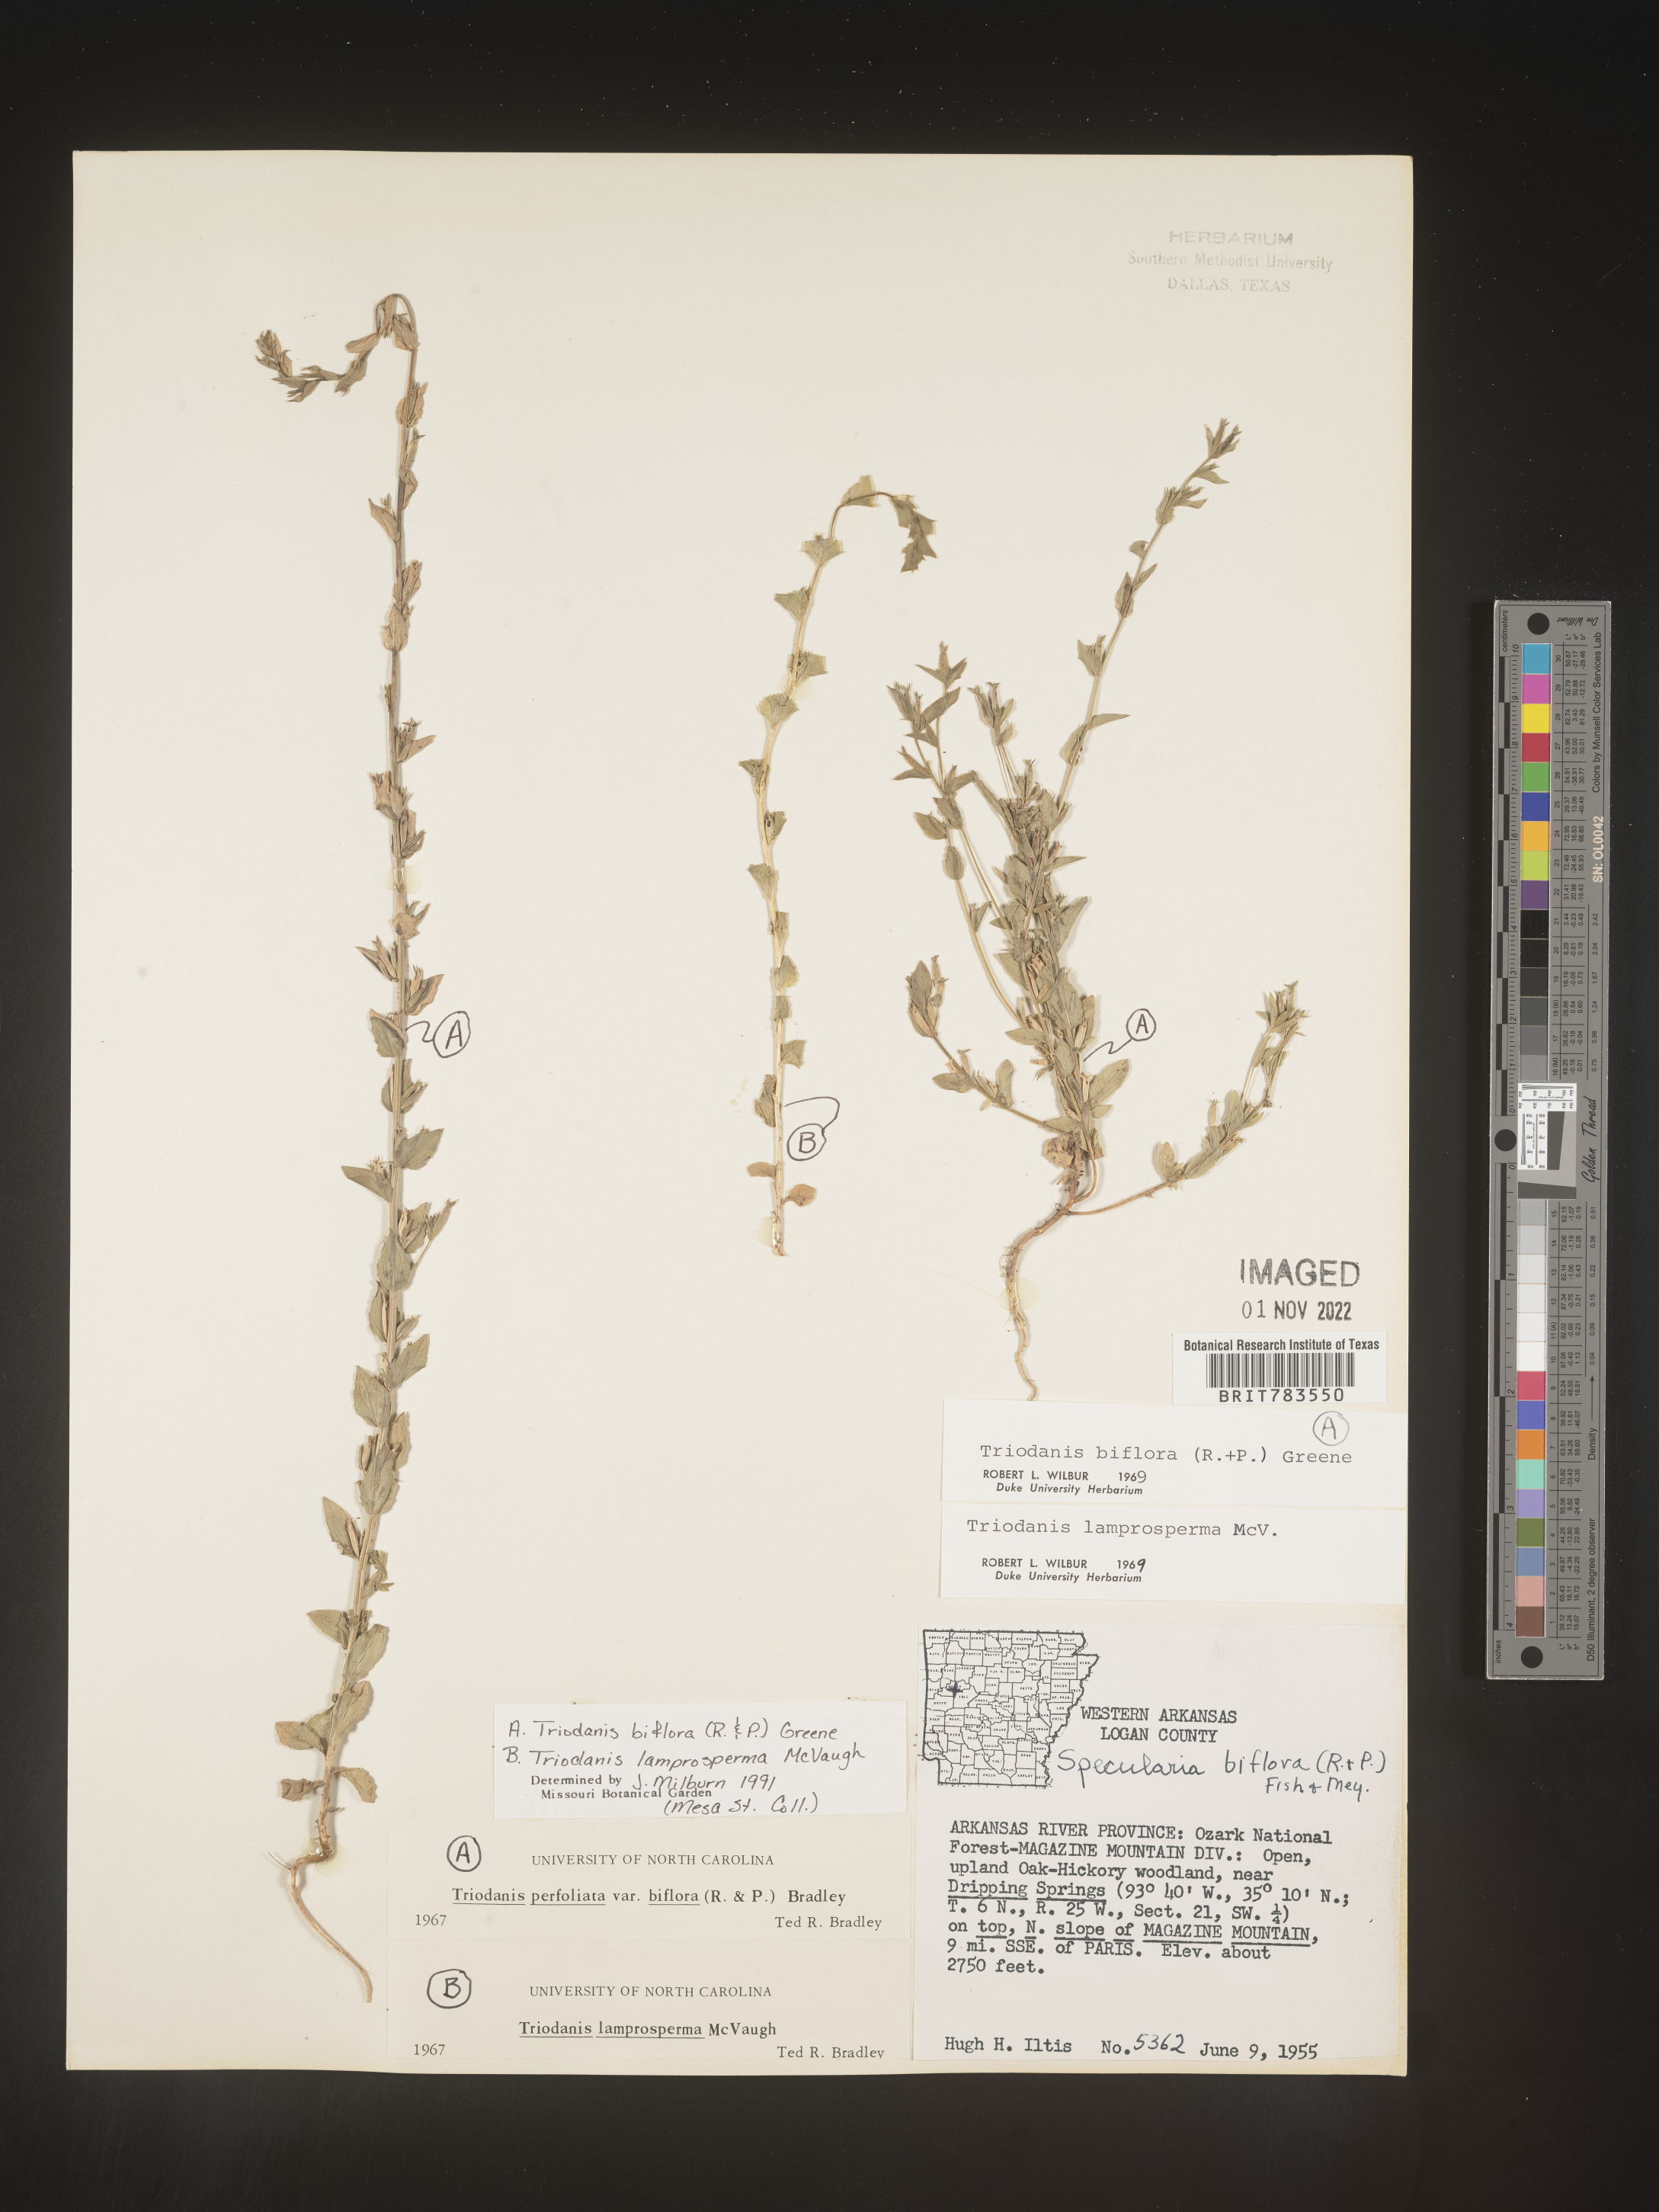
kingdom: Plantae
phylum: Tracheophyta
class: Magnoliopsida
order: Asterales
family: Campanulaceae
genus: Triodanis
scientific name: Triodanis perfoliata
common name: Clasping venus' looking-glass
